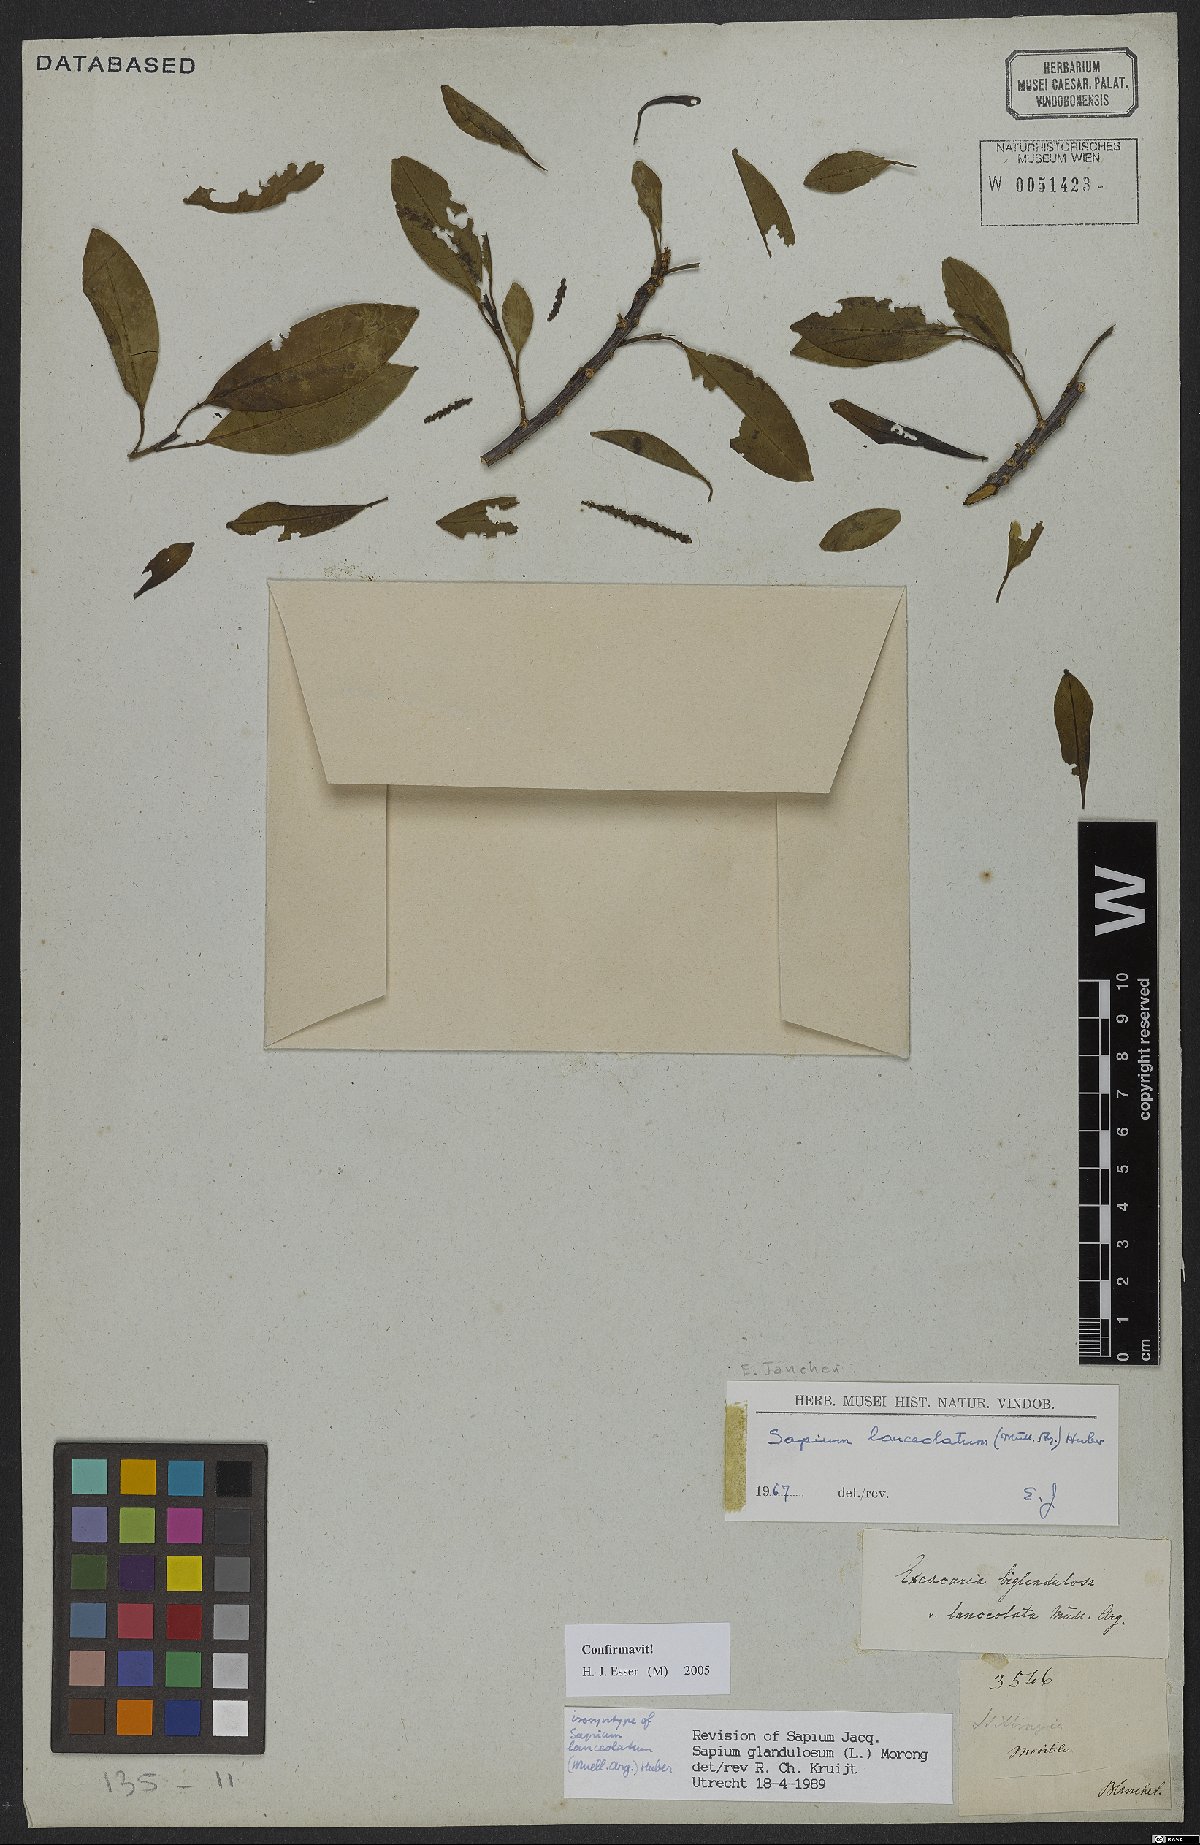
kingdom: Plantae
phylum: Tracheophyta
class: Magnoliopsida
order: Malpighiales
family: Euphorbiaceae
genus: Sapium
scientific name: Sapium glandulosum
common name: Milktree
